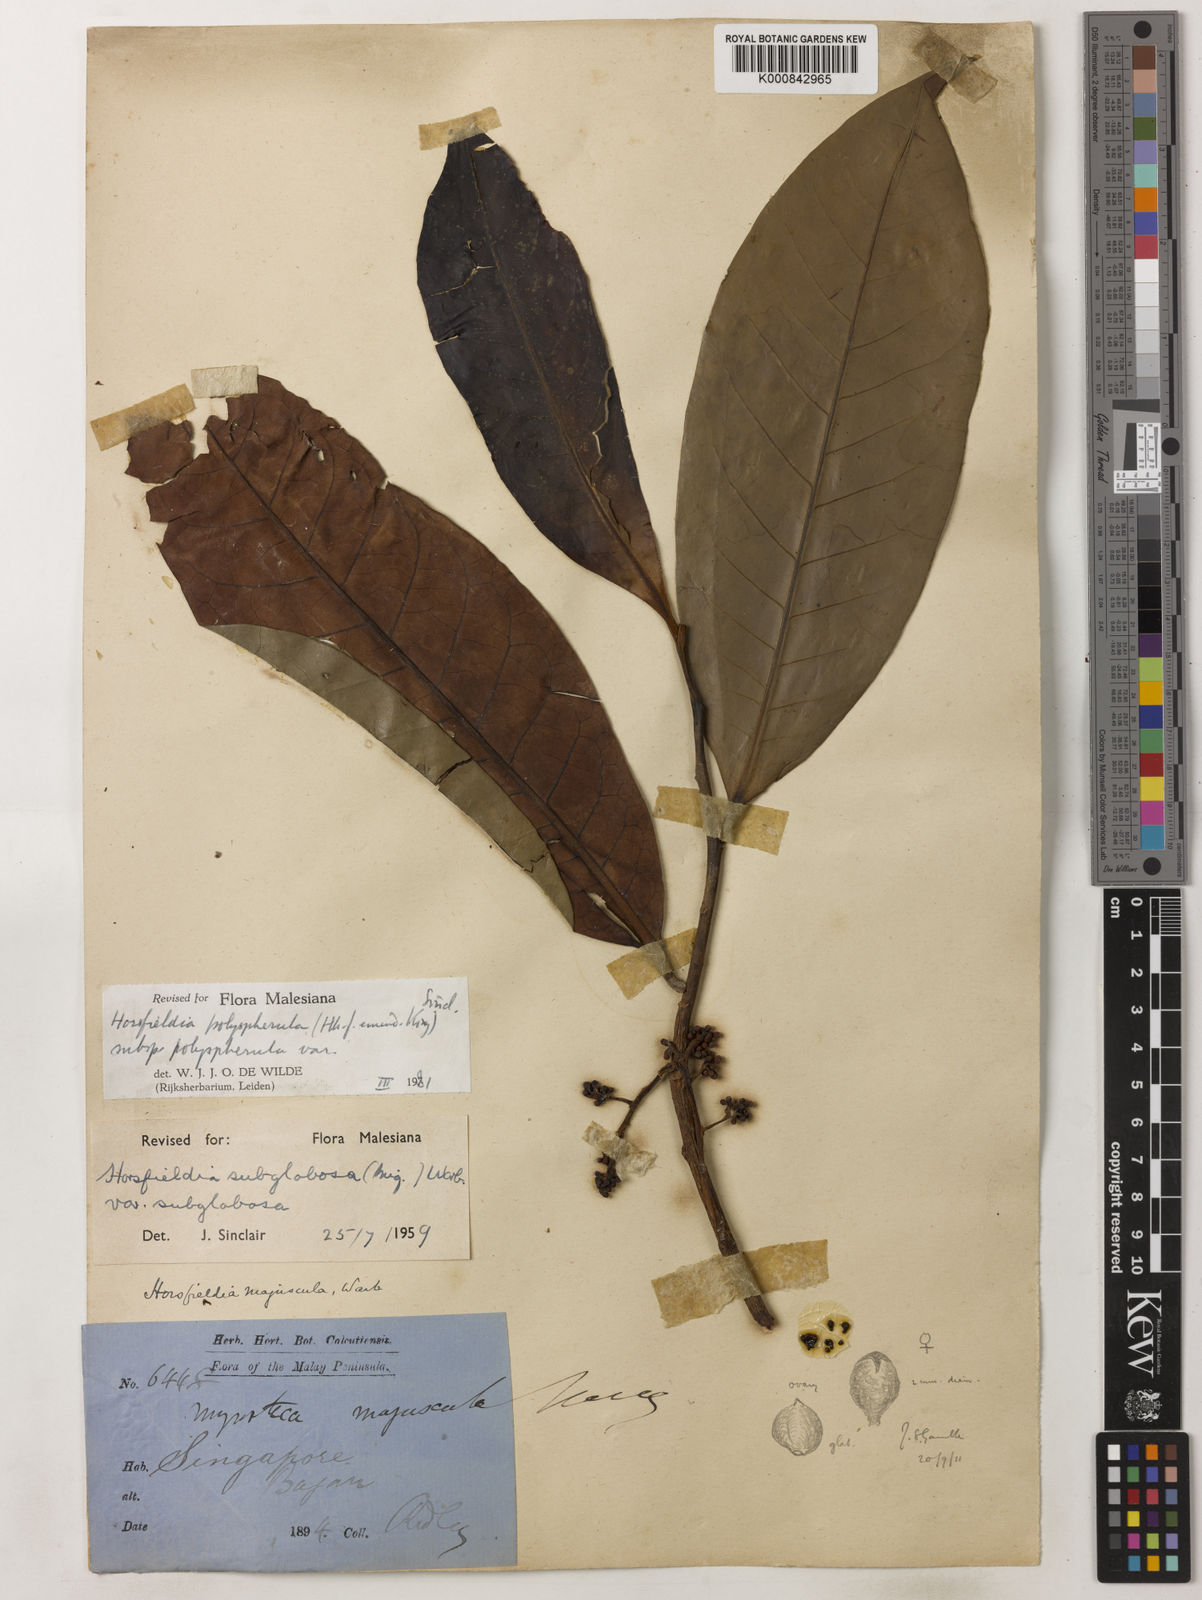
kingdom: Plantae
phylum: Tracheophyta
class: Magnoliopsida
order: Magnoliales
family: Myristicaceae
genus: Horsfieldia
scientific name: Horsfieldia
